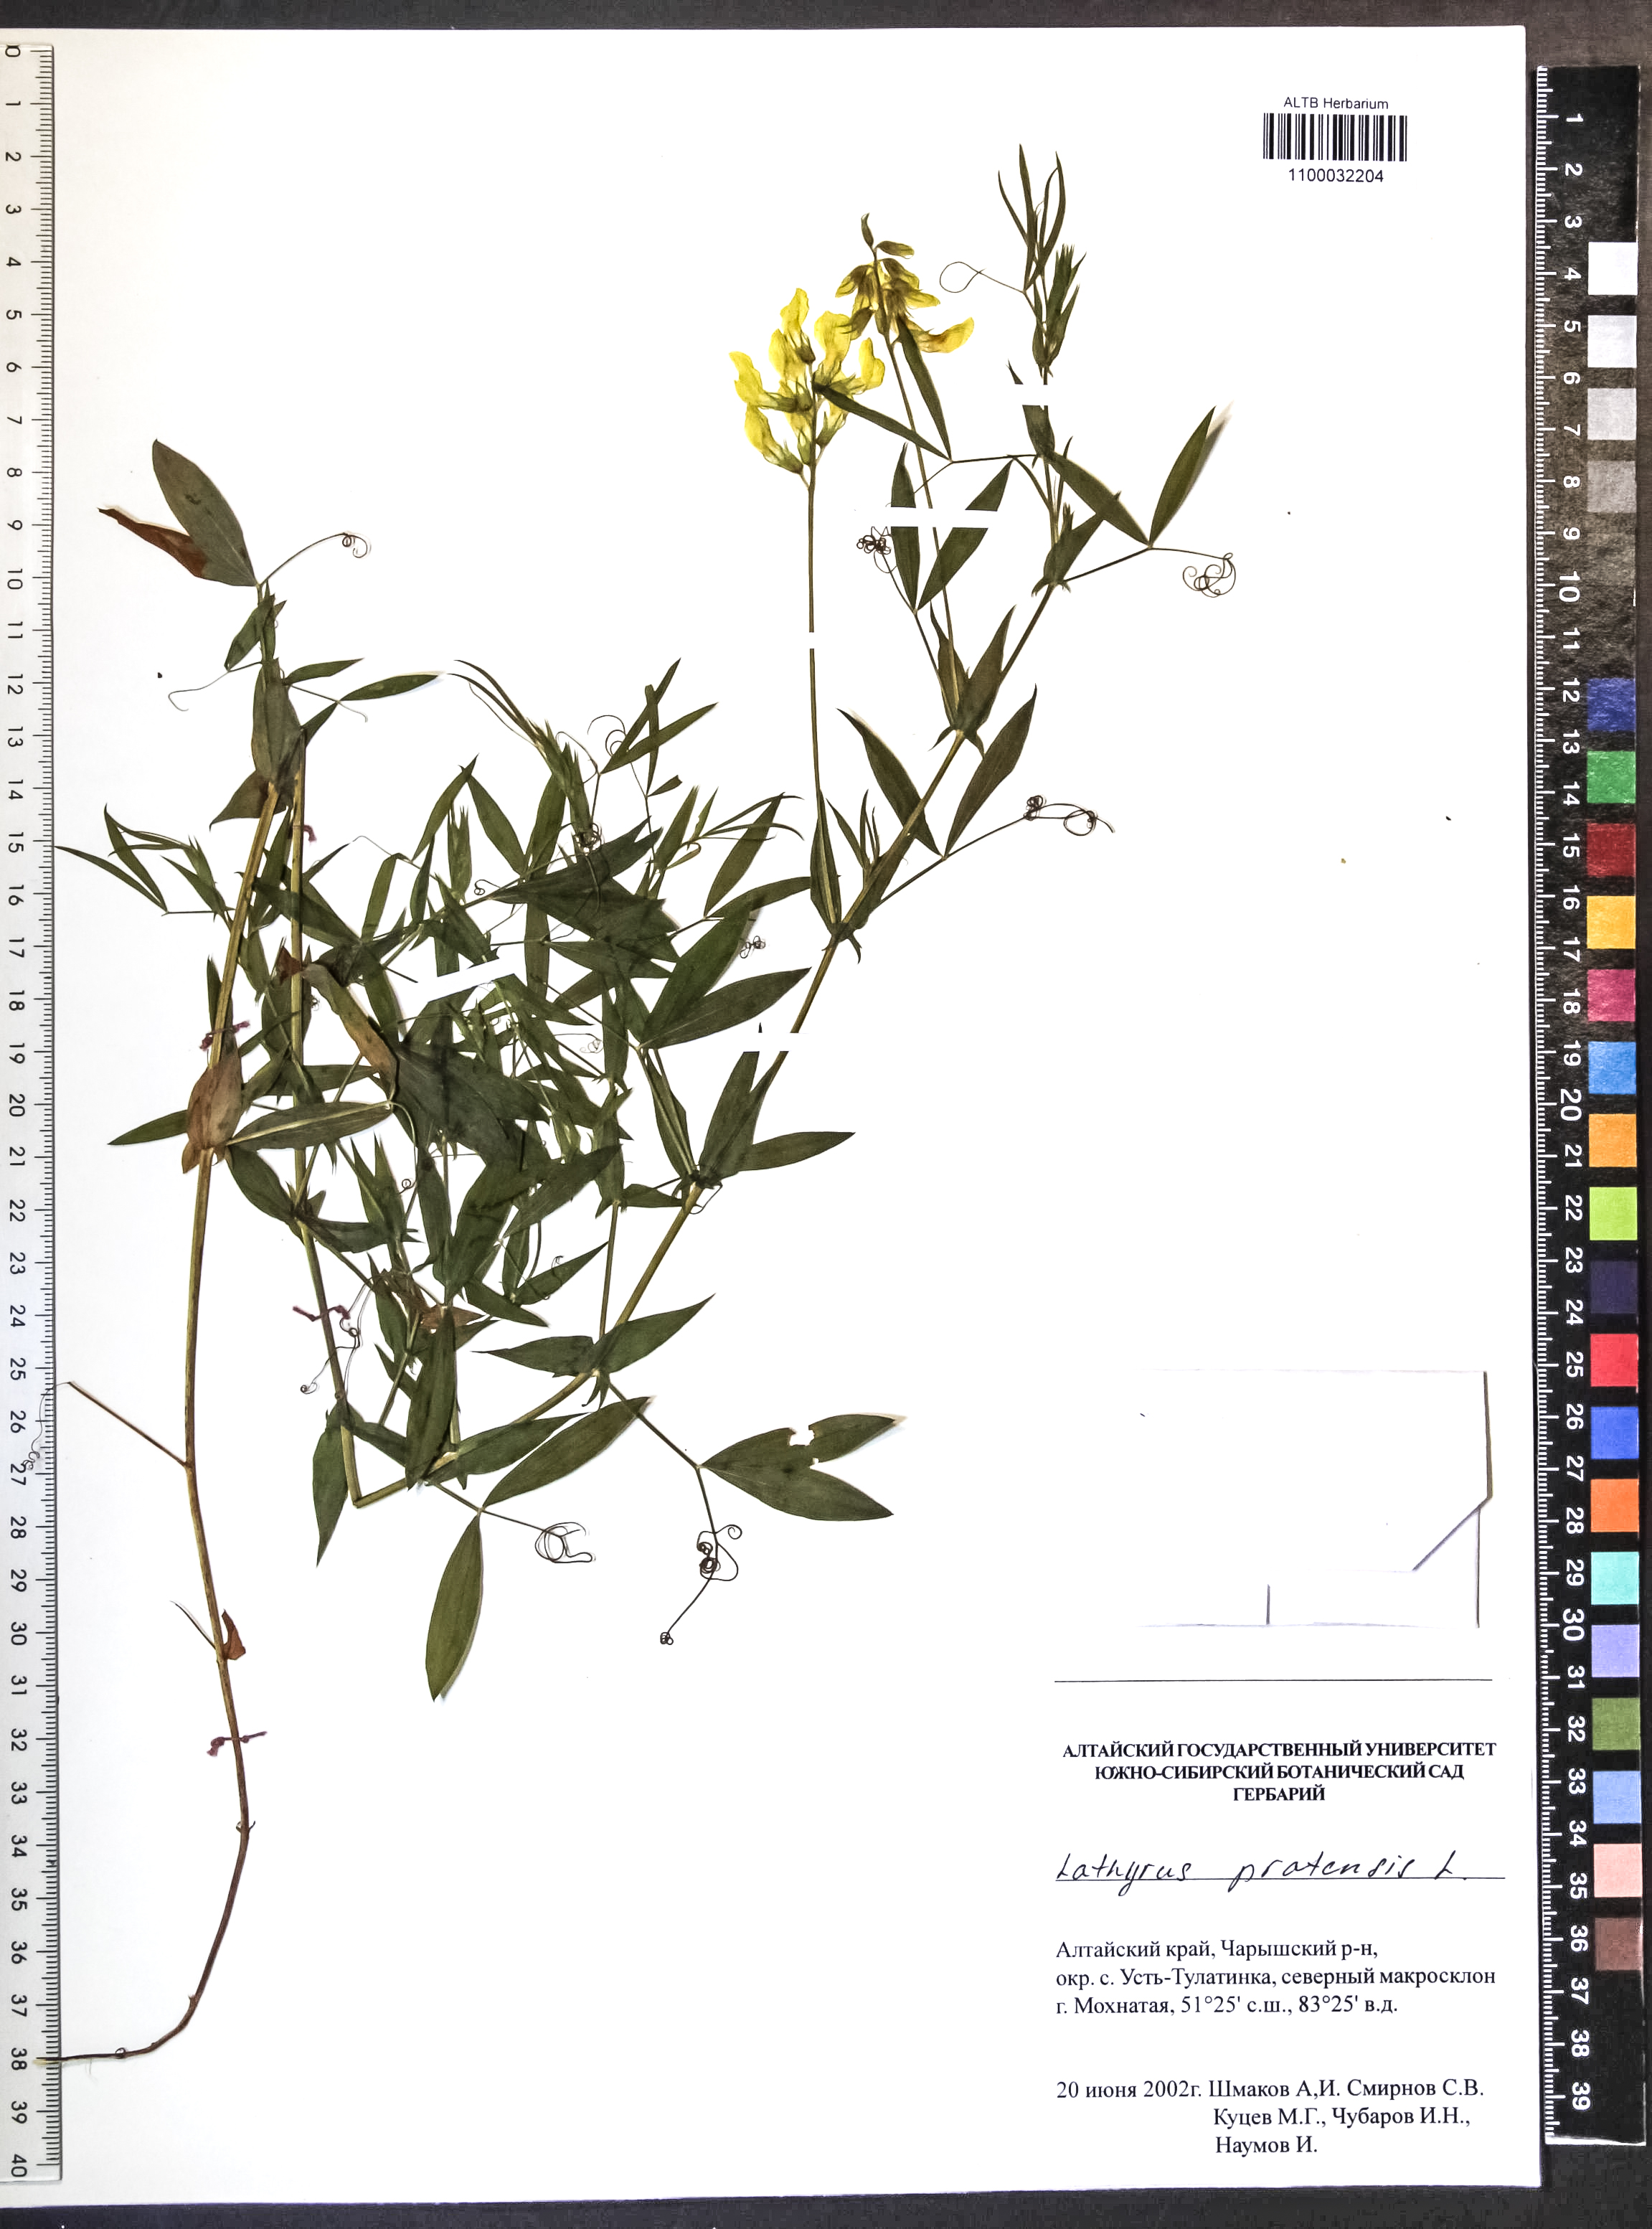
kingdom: Plantae
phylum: Tracheophyta
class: Magnoliopsida
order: Fabales
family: Fabaceae
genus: Lathyrus
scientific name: Lathyrus pratensis
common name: Meadow vetchling
